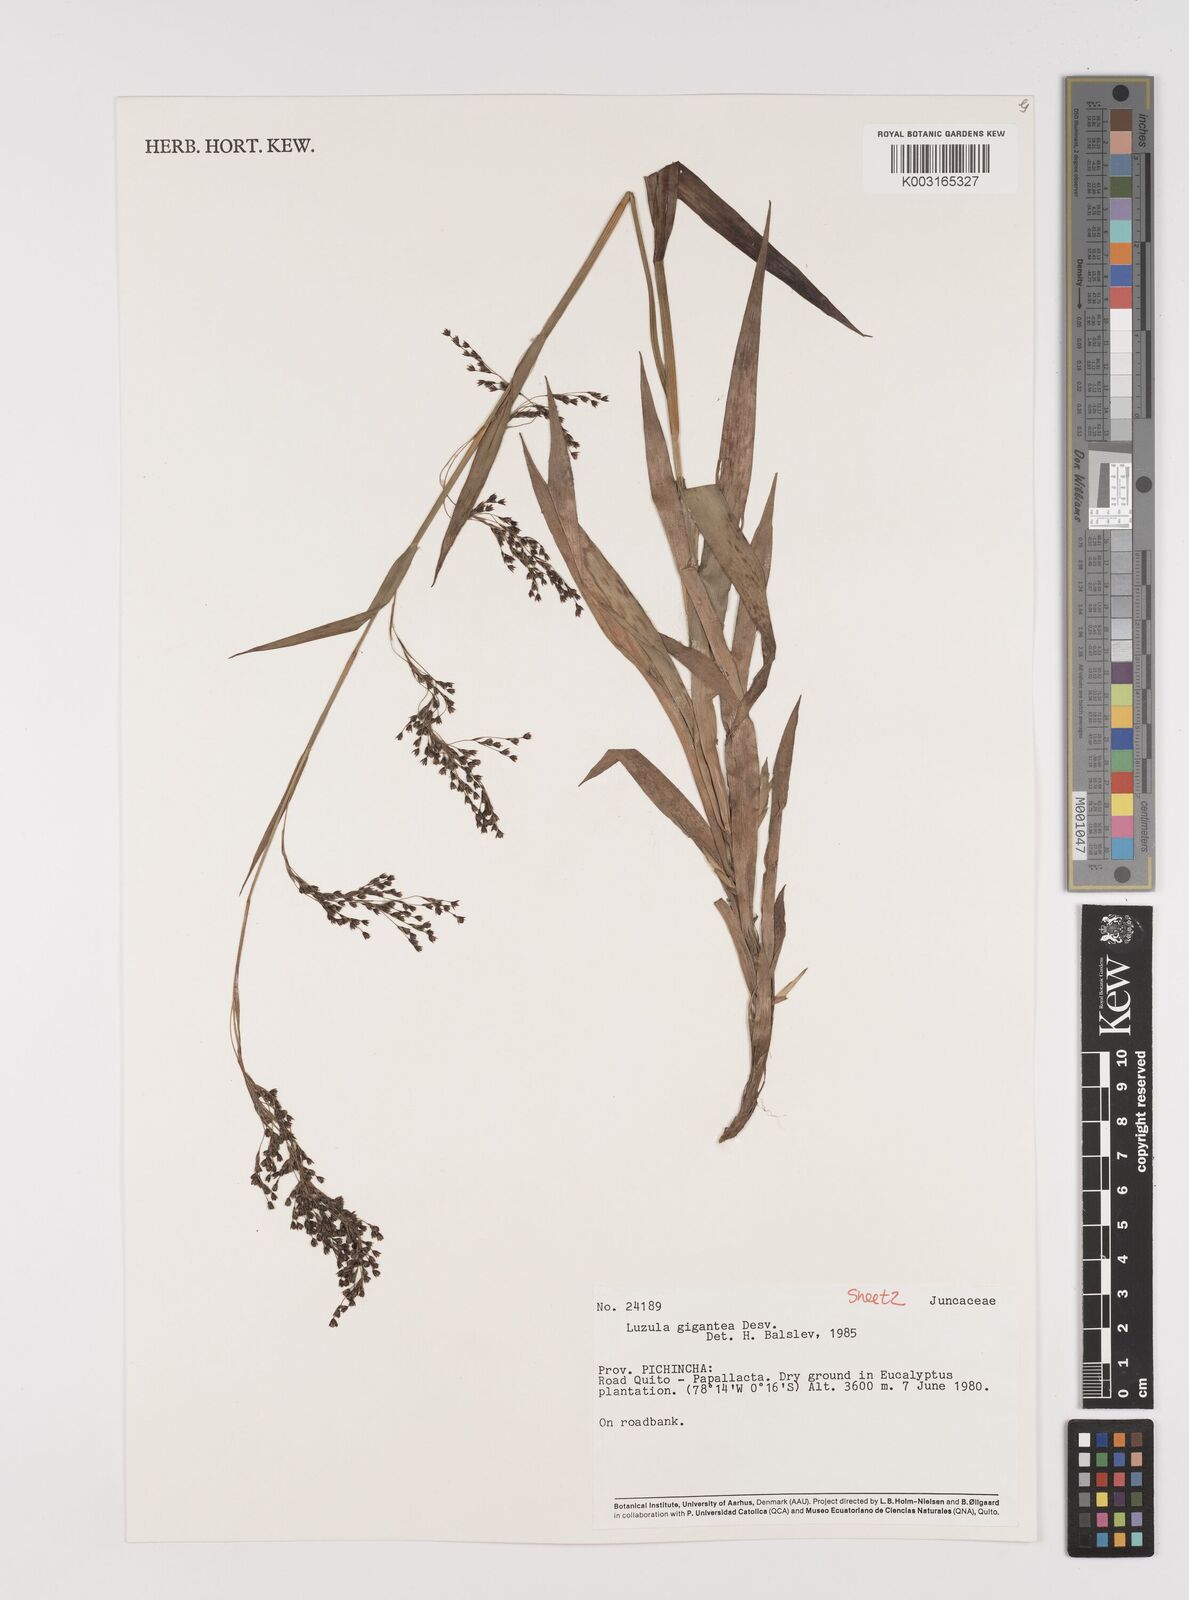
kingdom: Plantae
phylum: Tracheophyta
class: Liliopsida
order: Poales
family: Juncaceae
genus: Luzula
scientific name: Luzula gigantea
